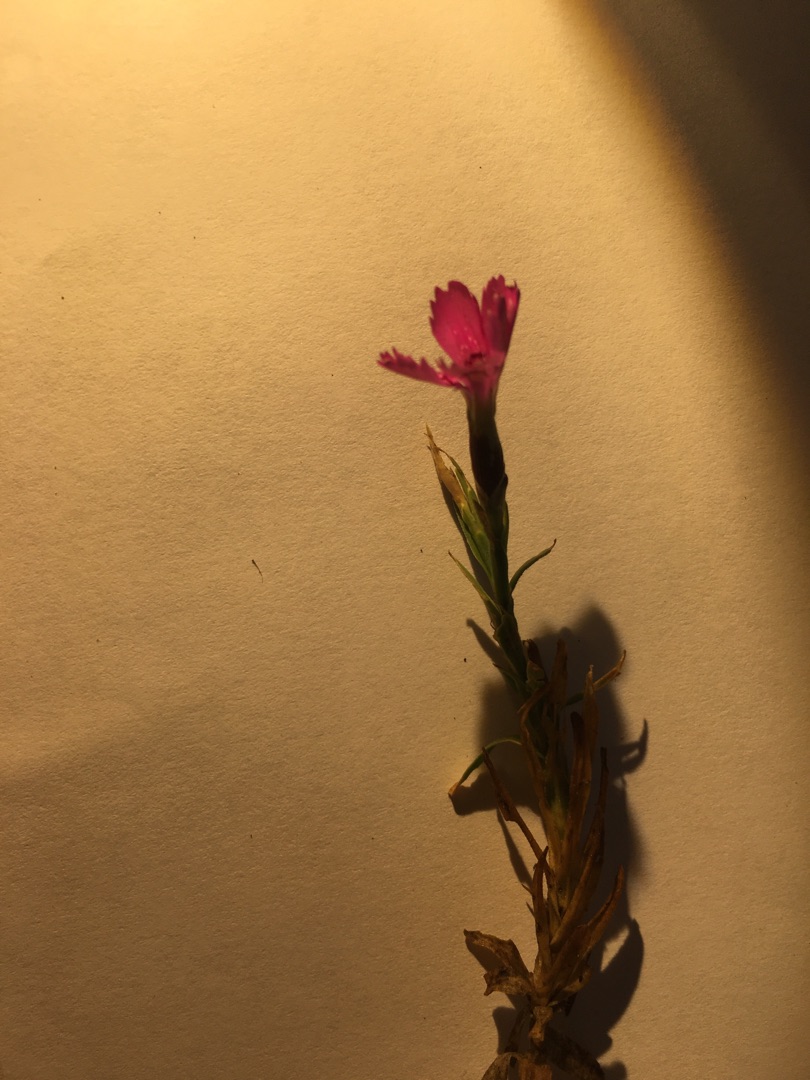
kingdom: Plantae
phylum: Tracheophyta
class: Magnoliopsida
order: Caryophyllales
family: Caryophyllaceae
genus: Dianthus
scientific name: Dianthus deltoides
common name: Bakke-nellike
